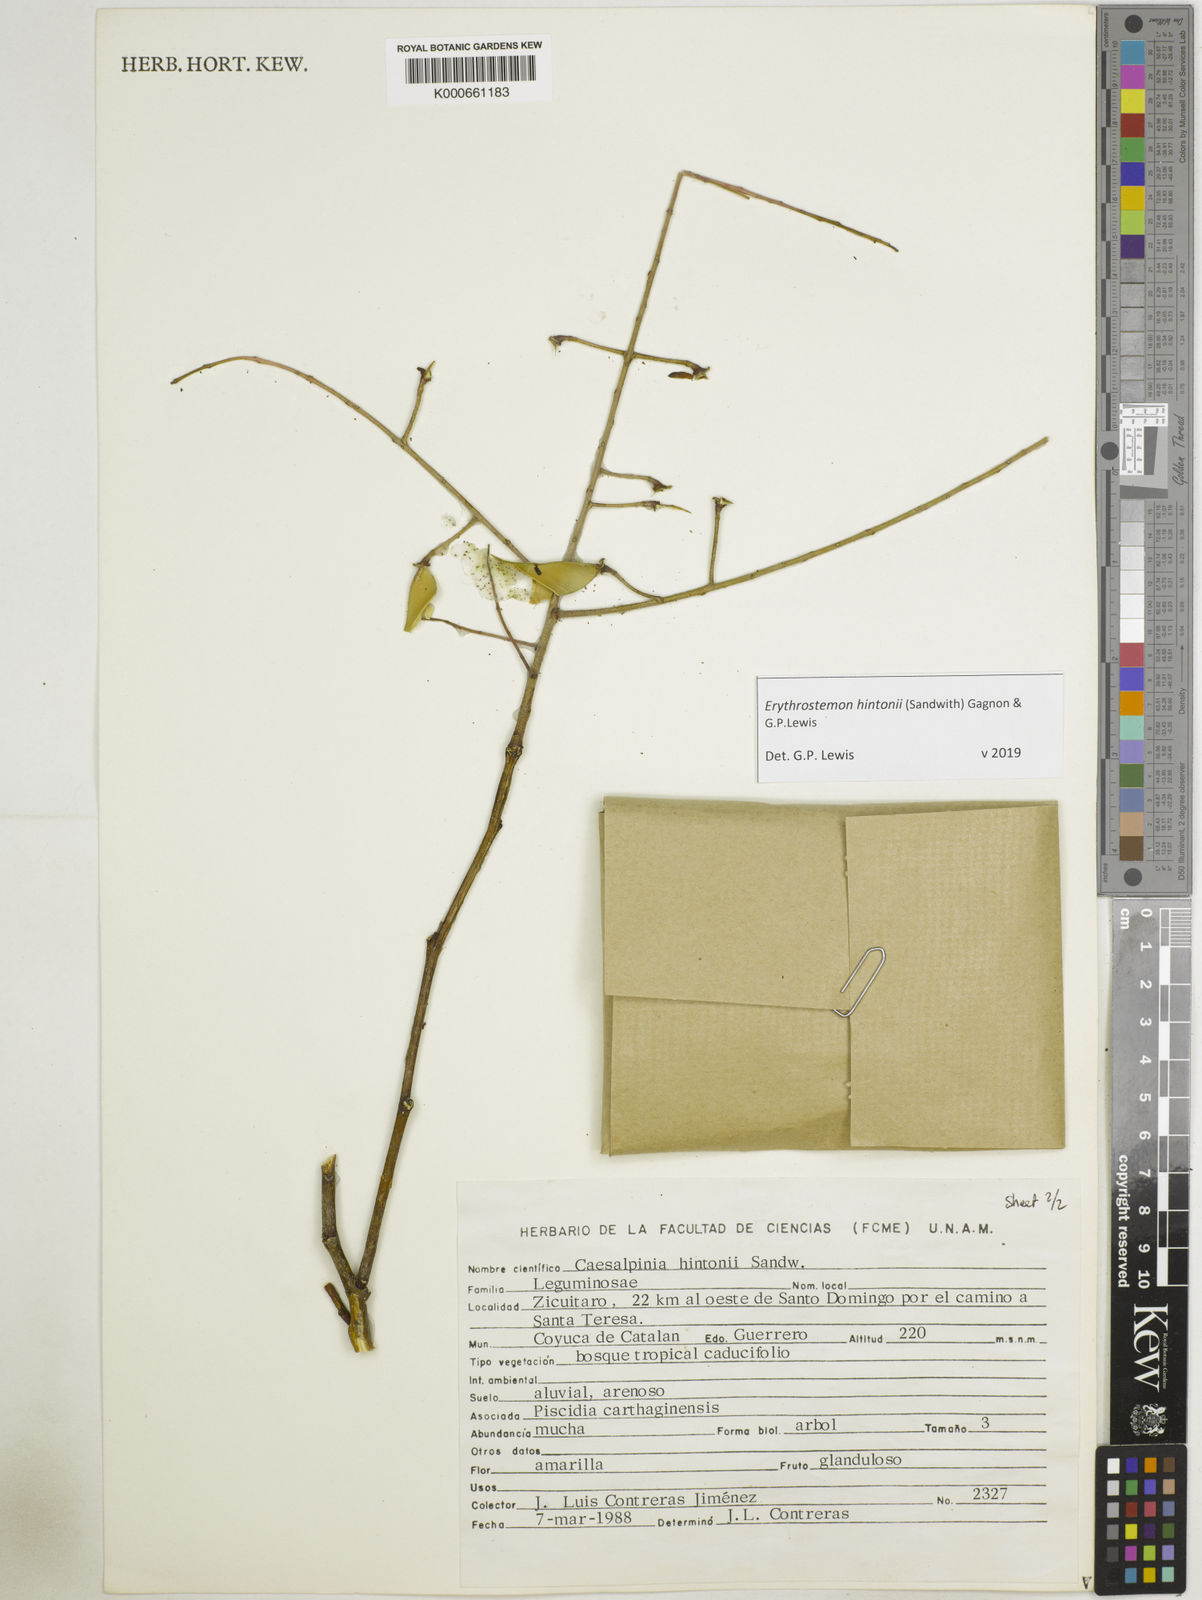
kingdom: Plantae
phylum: Tracheophyta
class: Magnoliopsida
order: Fabales
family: Fabaceae
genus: Erythrostemon
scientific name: Erythrostemon hintonii
